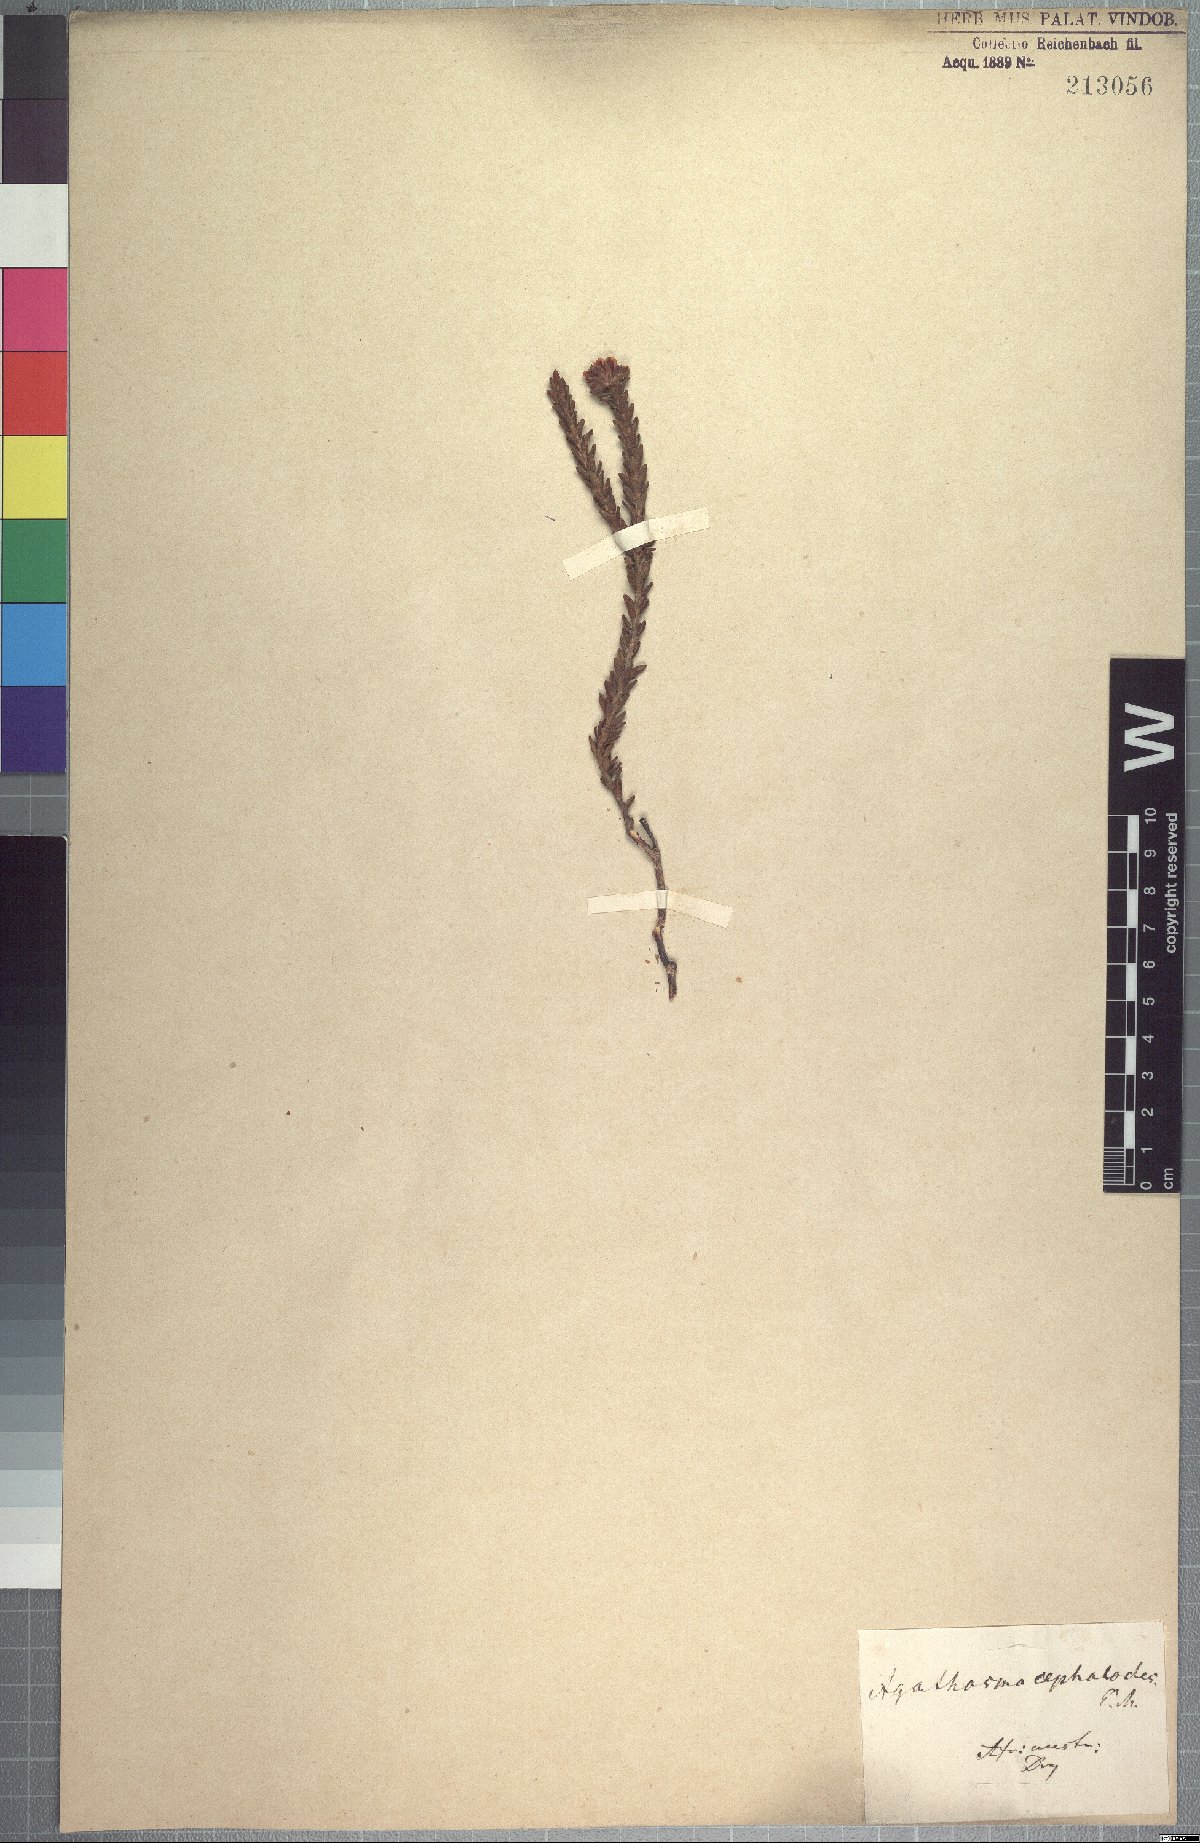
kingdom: Plantae
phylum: Tracheophyta
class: Magnoliopsida
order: Sapindales
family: Rutaceae
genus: Agathosma
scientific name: Agathosma cephalotes
